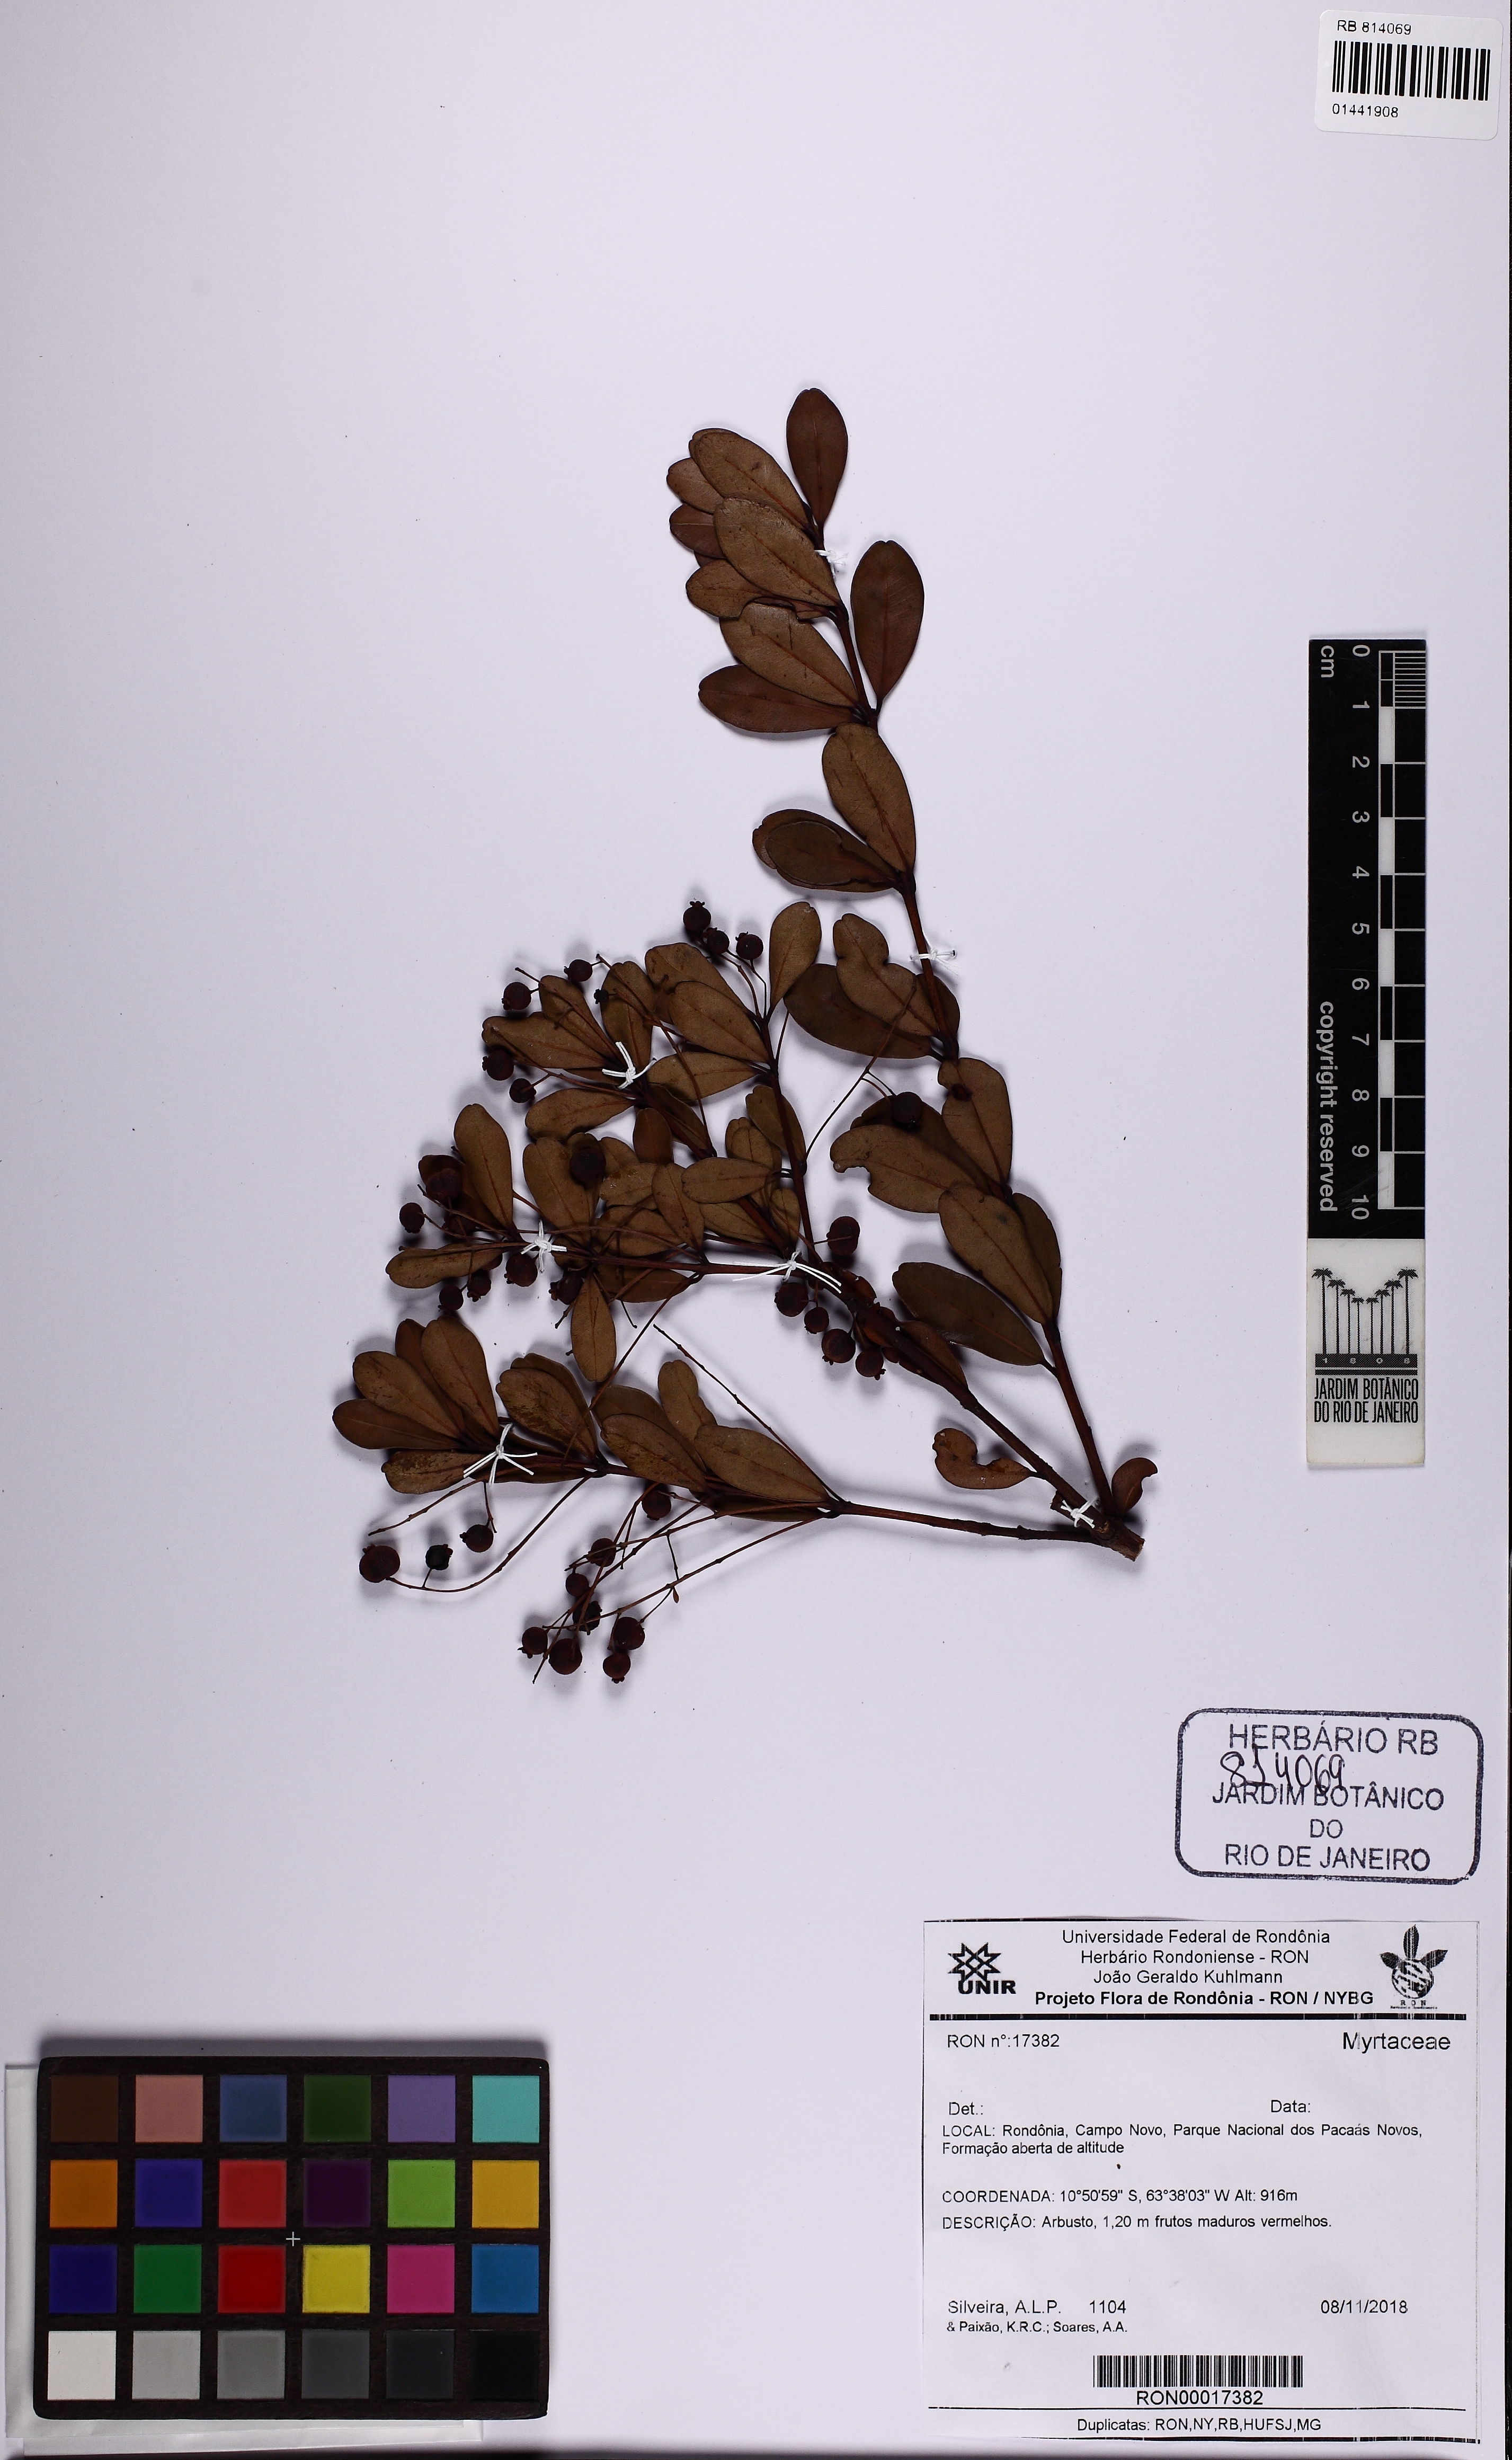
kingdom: Plantae
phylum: Tracheophyta
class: Magnoliopsida
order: Myrtales
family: Myrtaceae
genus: Myrcia
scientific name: Myrcia guianensis
